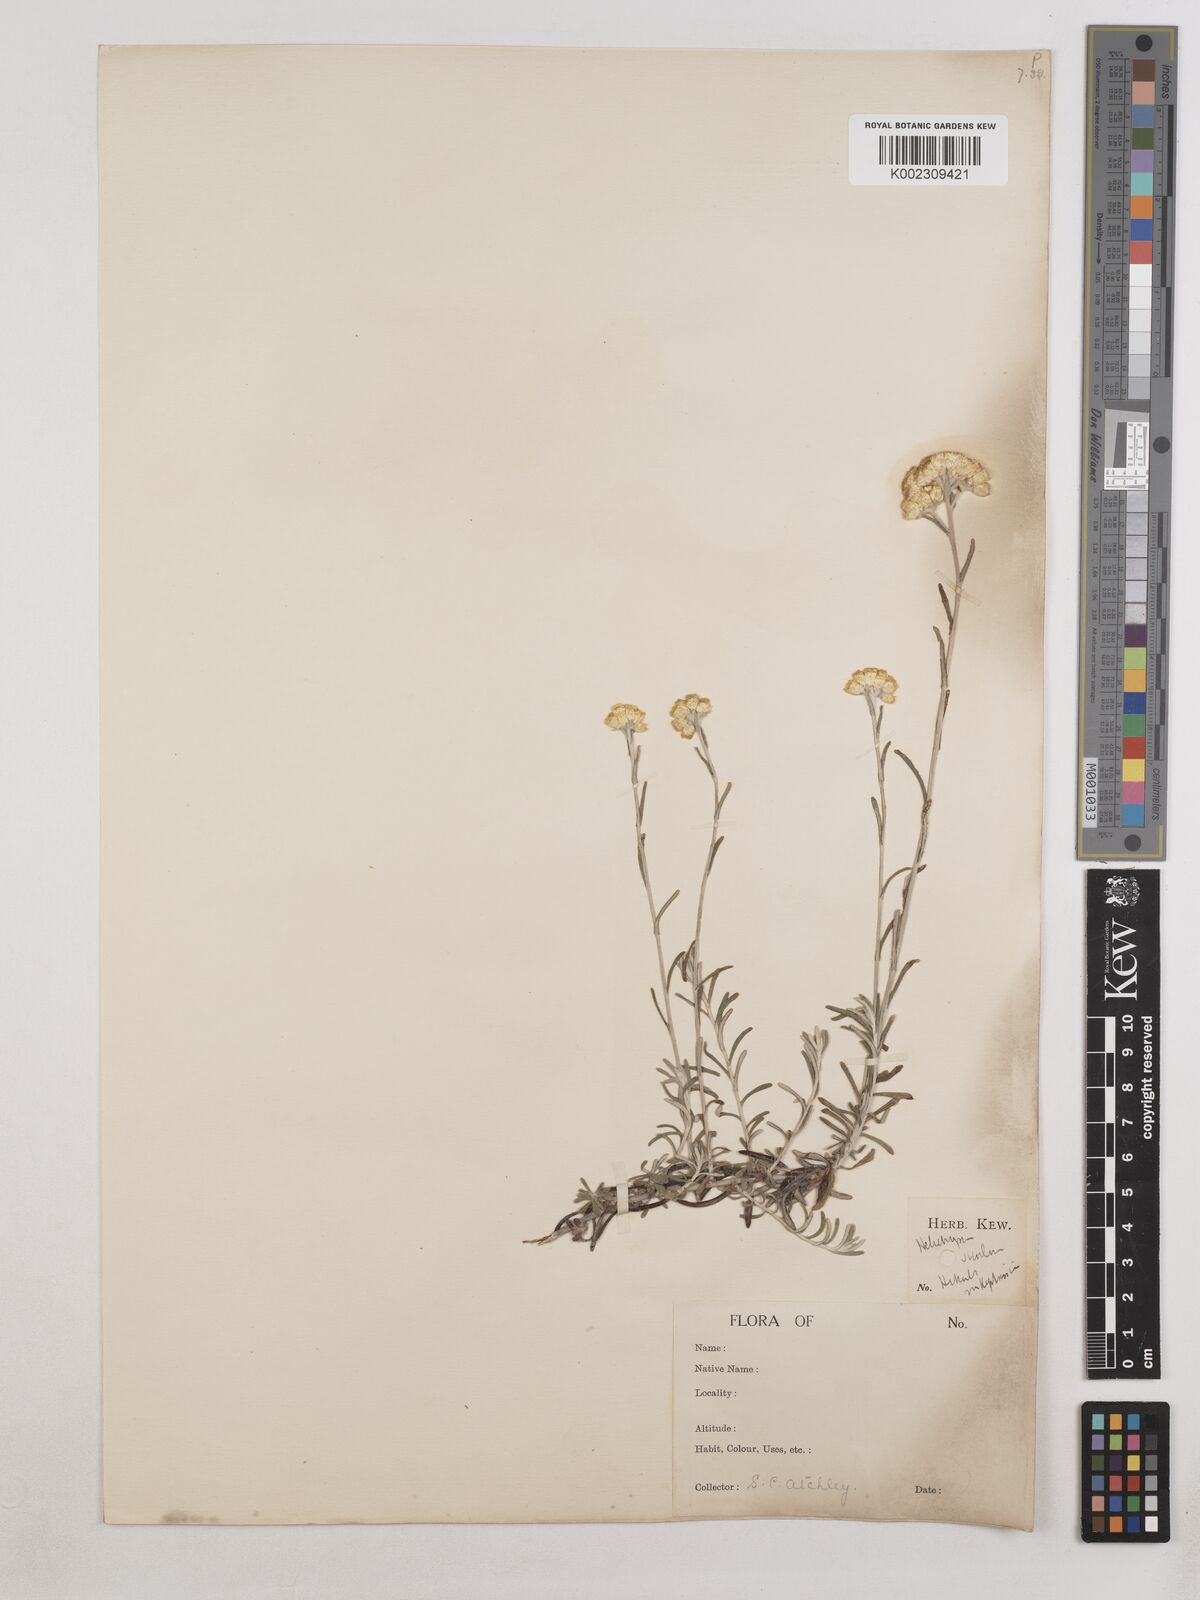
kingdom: Plantae
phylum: Tracheophyta
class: Magnoliopsida
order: Asterales
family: Asteraceae
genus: Helichrysum
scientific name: Helichrysum stoechas
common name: Goldilocks
